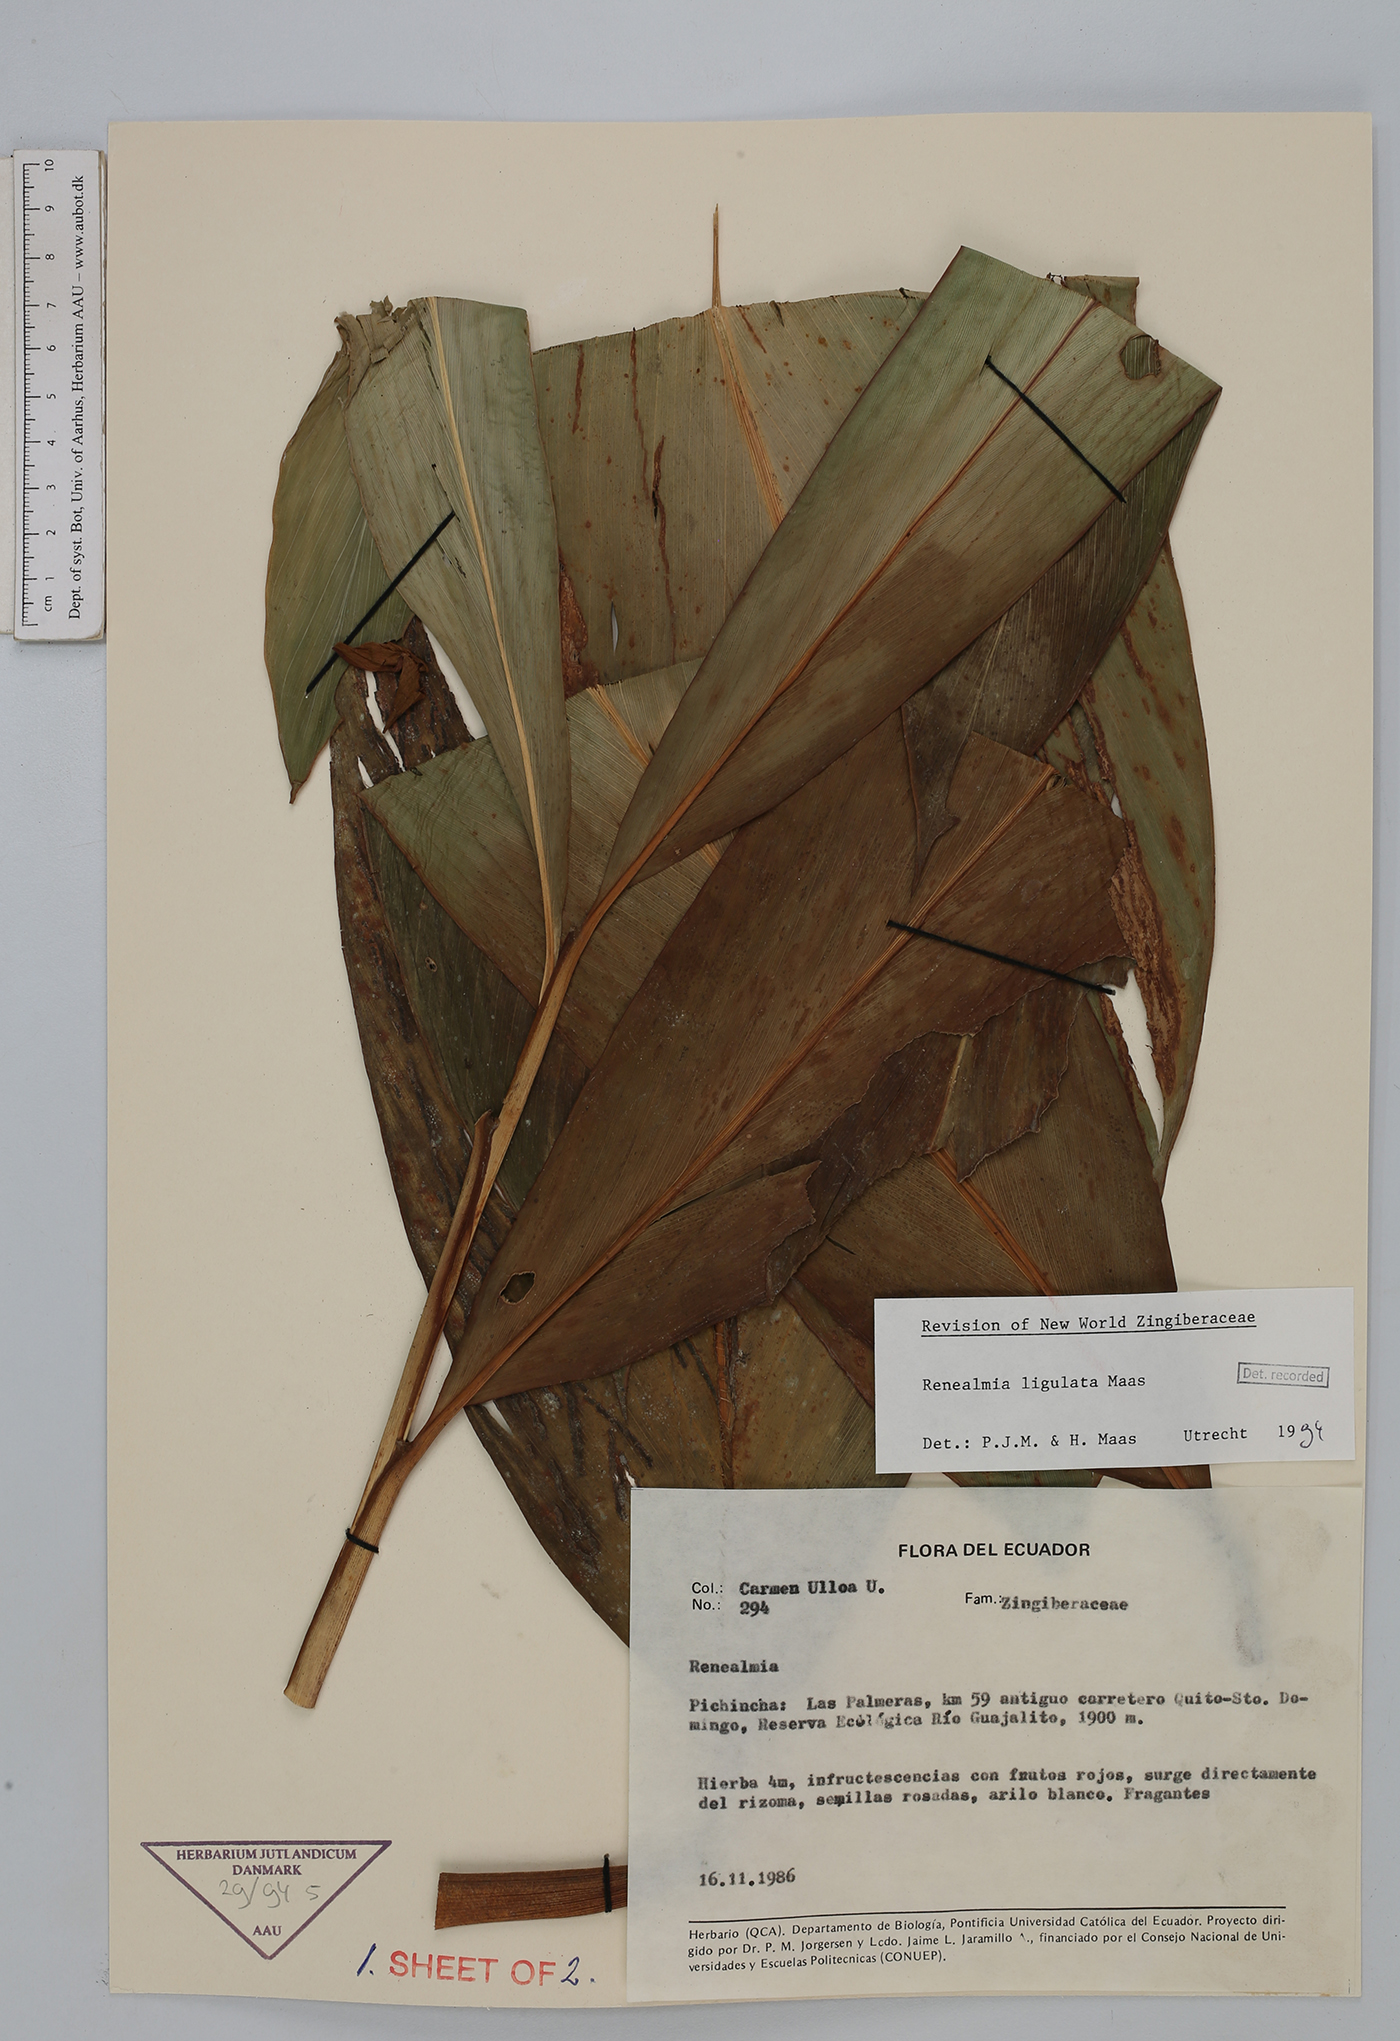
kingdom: Plantae
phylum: Tracheophyta
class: Liliopsida
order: Zingiberales
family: Zingiberaceae
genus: Renealmia
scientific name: Renealmia ligulata
